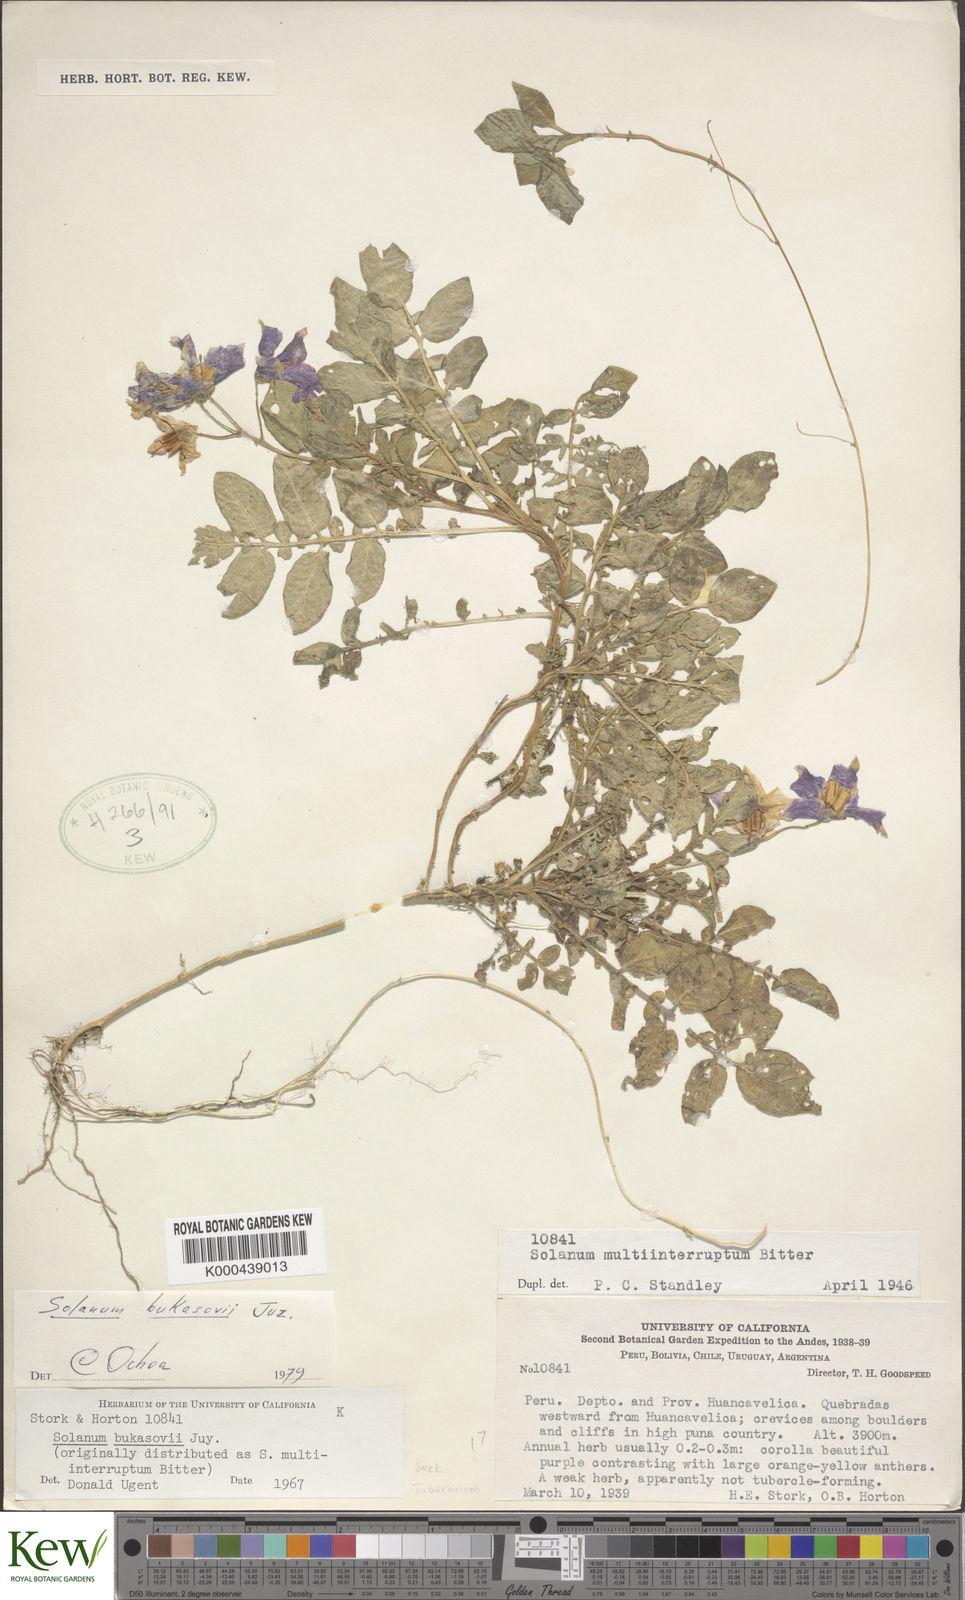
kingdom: Plantae
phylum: Tracheophyta
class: Magnoliopsida
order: Solanales
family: Solanaceae
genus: Solanum
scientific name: Solanum candolleanum
